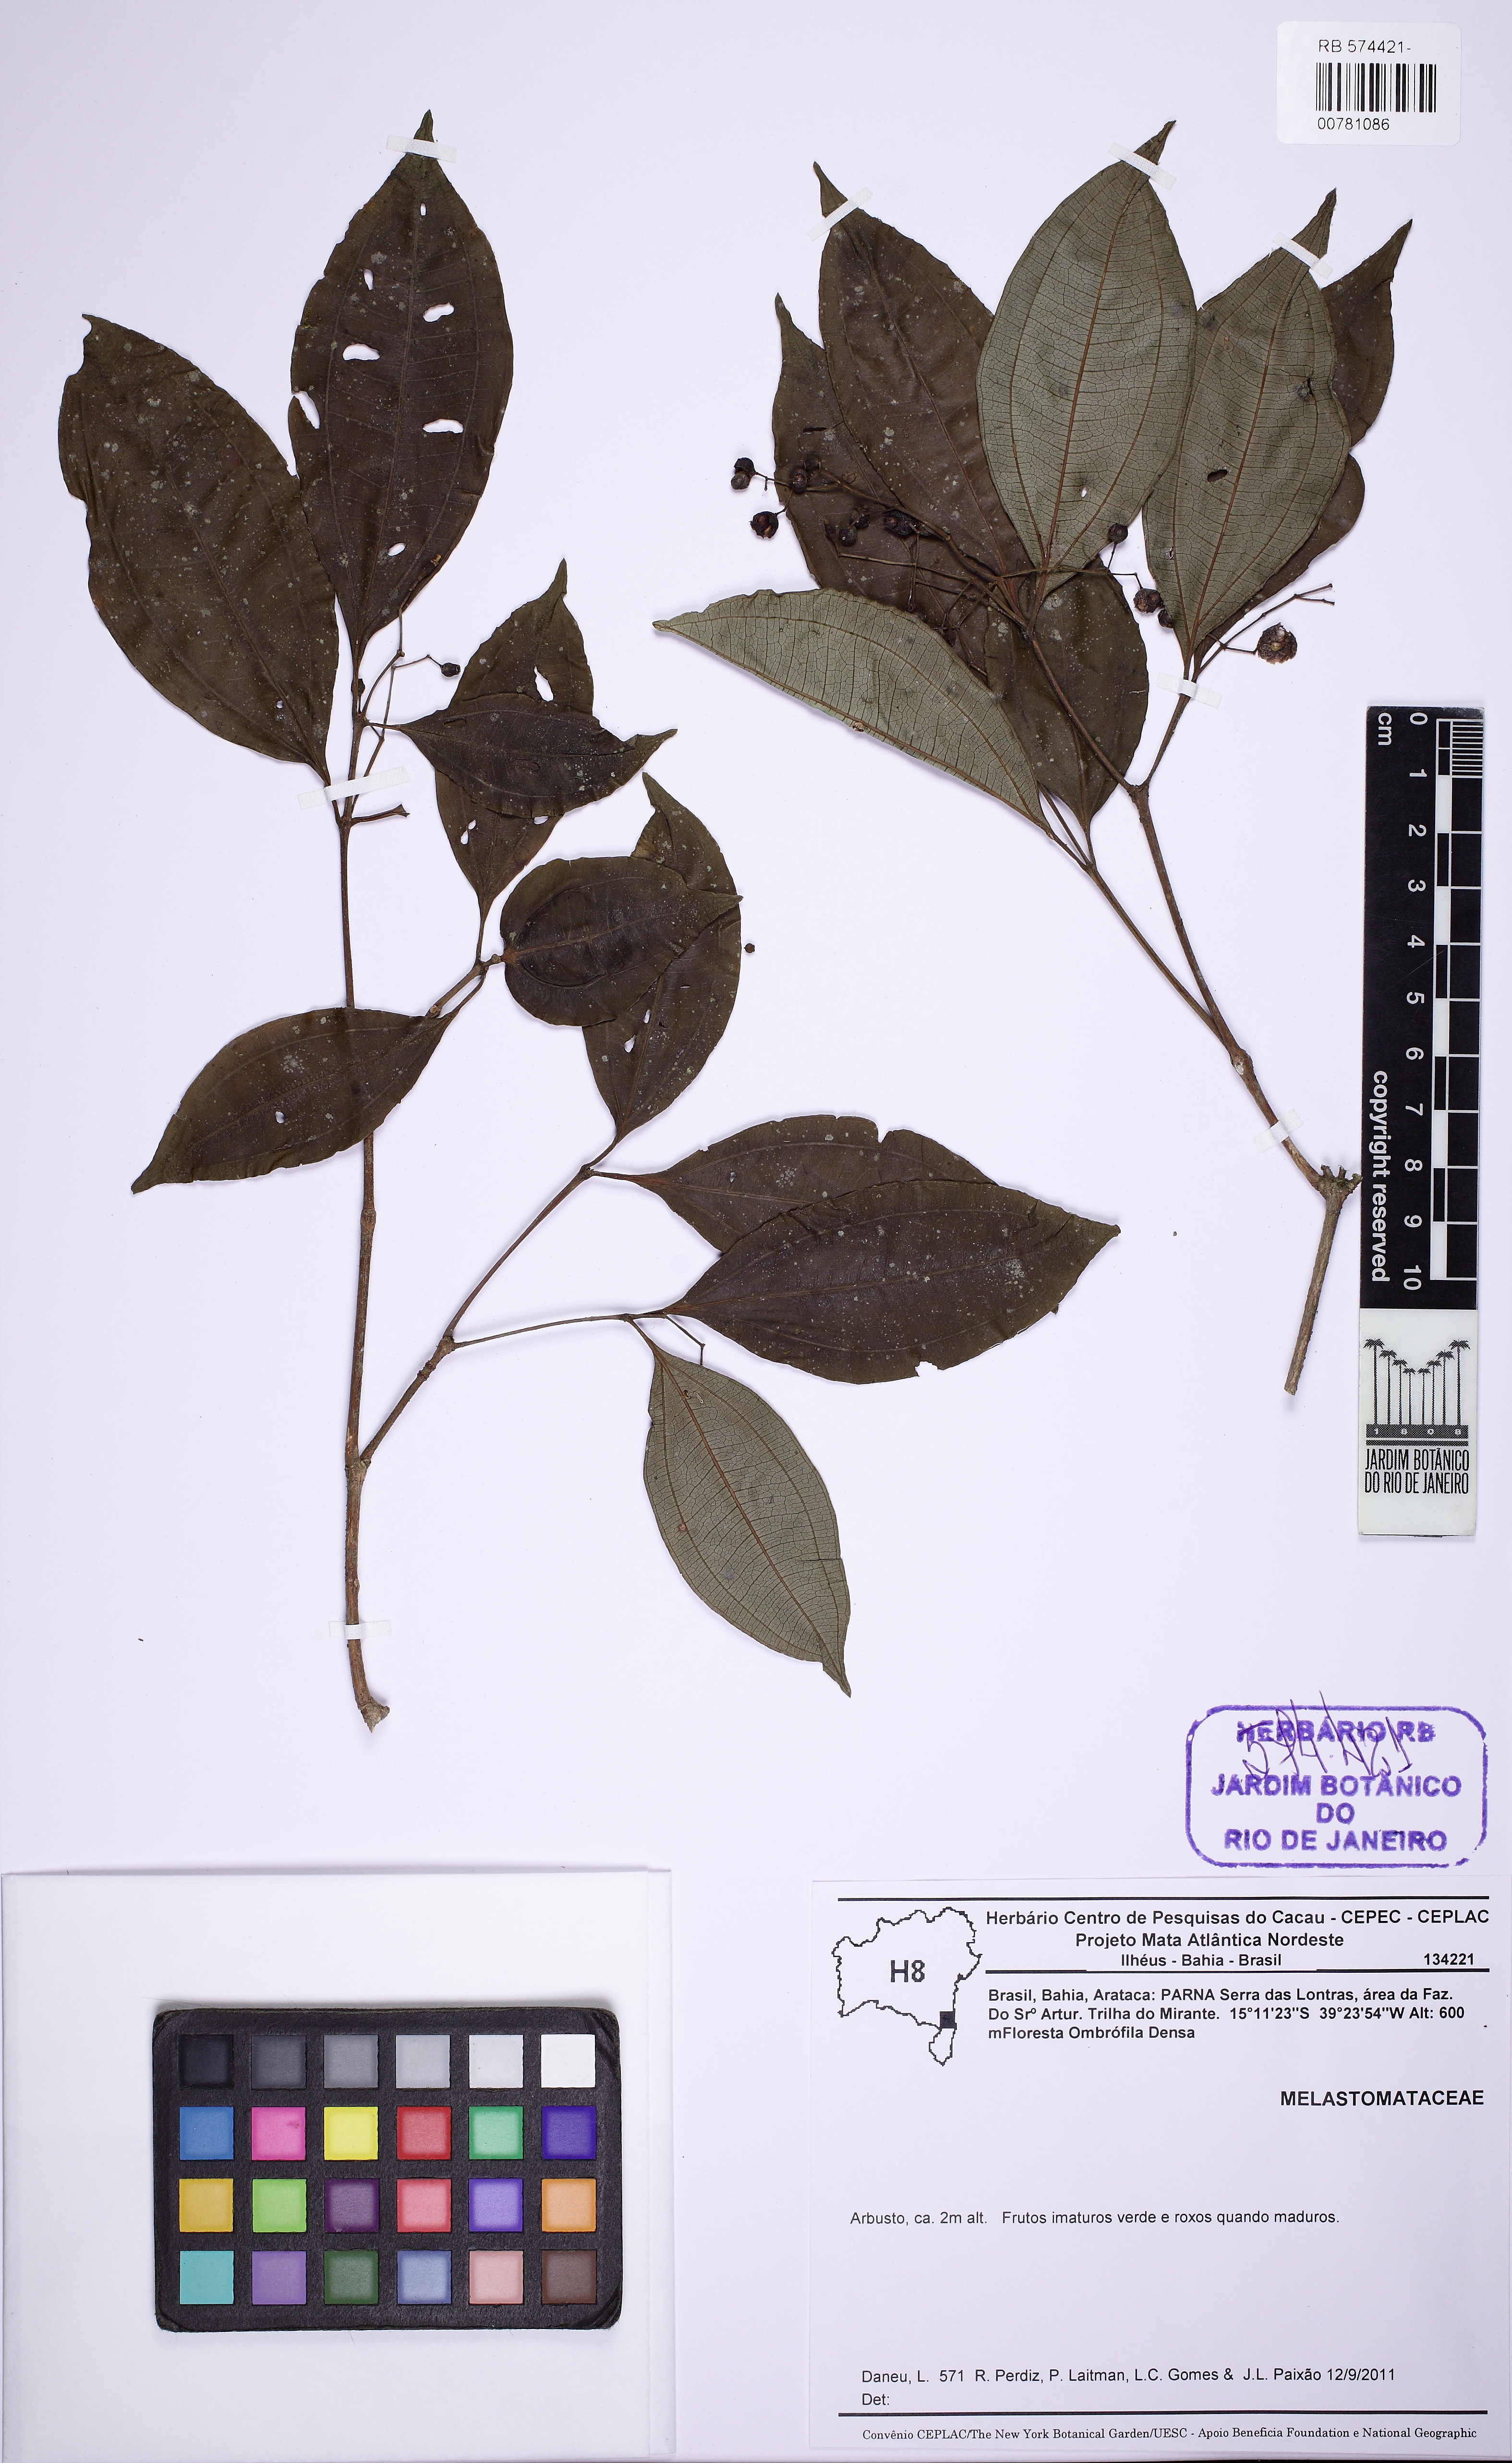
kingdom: Plantae
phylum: Tracheophyta
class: Magnoliopsida
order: Myrtales
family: Melastomataceae
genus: Miconia
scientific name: Miconia tristis
